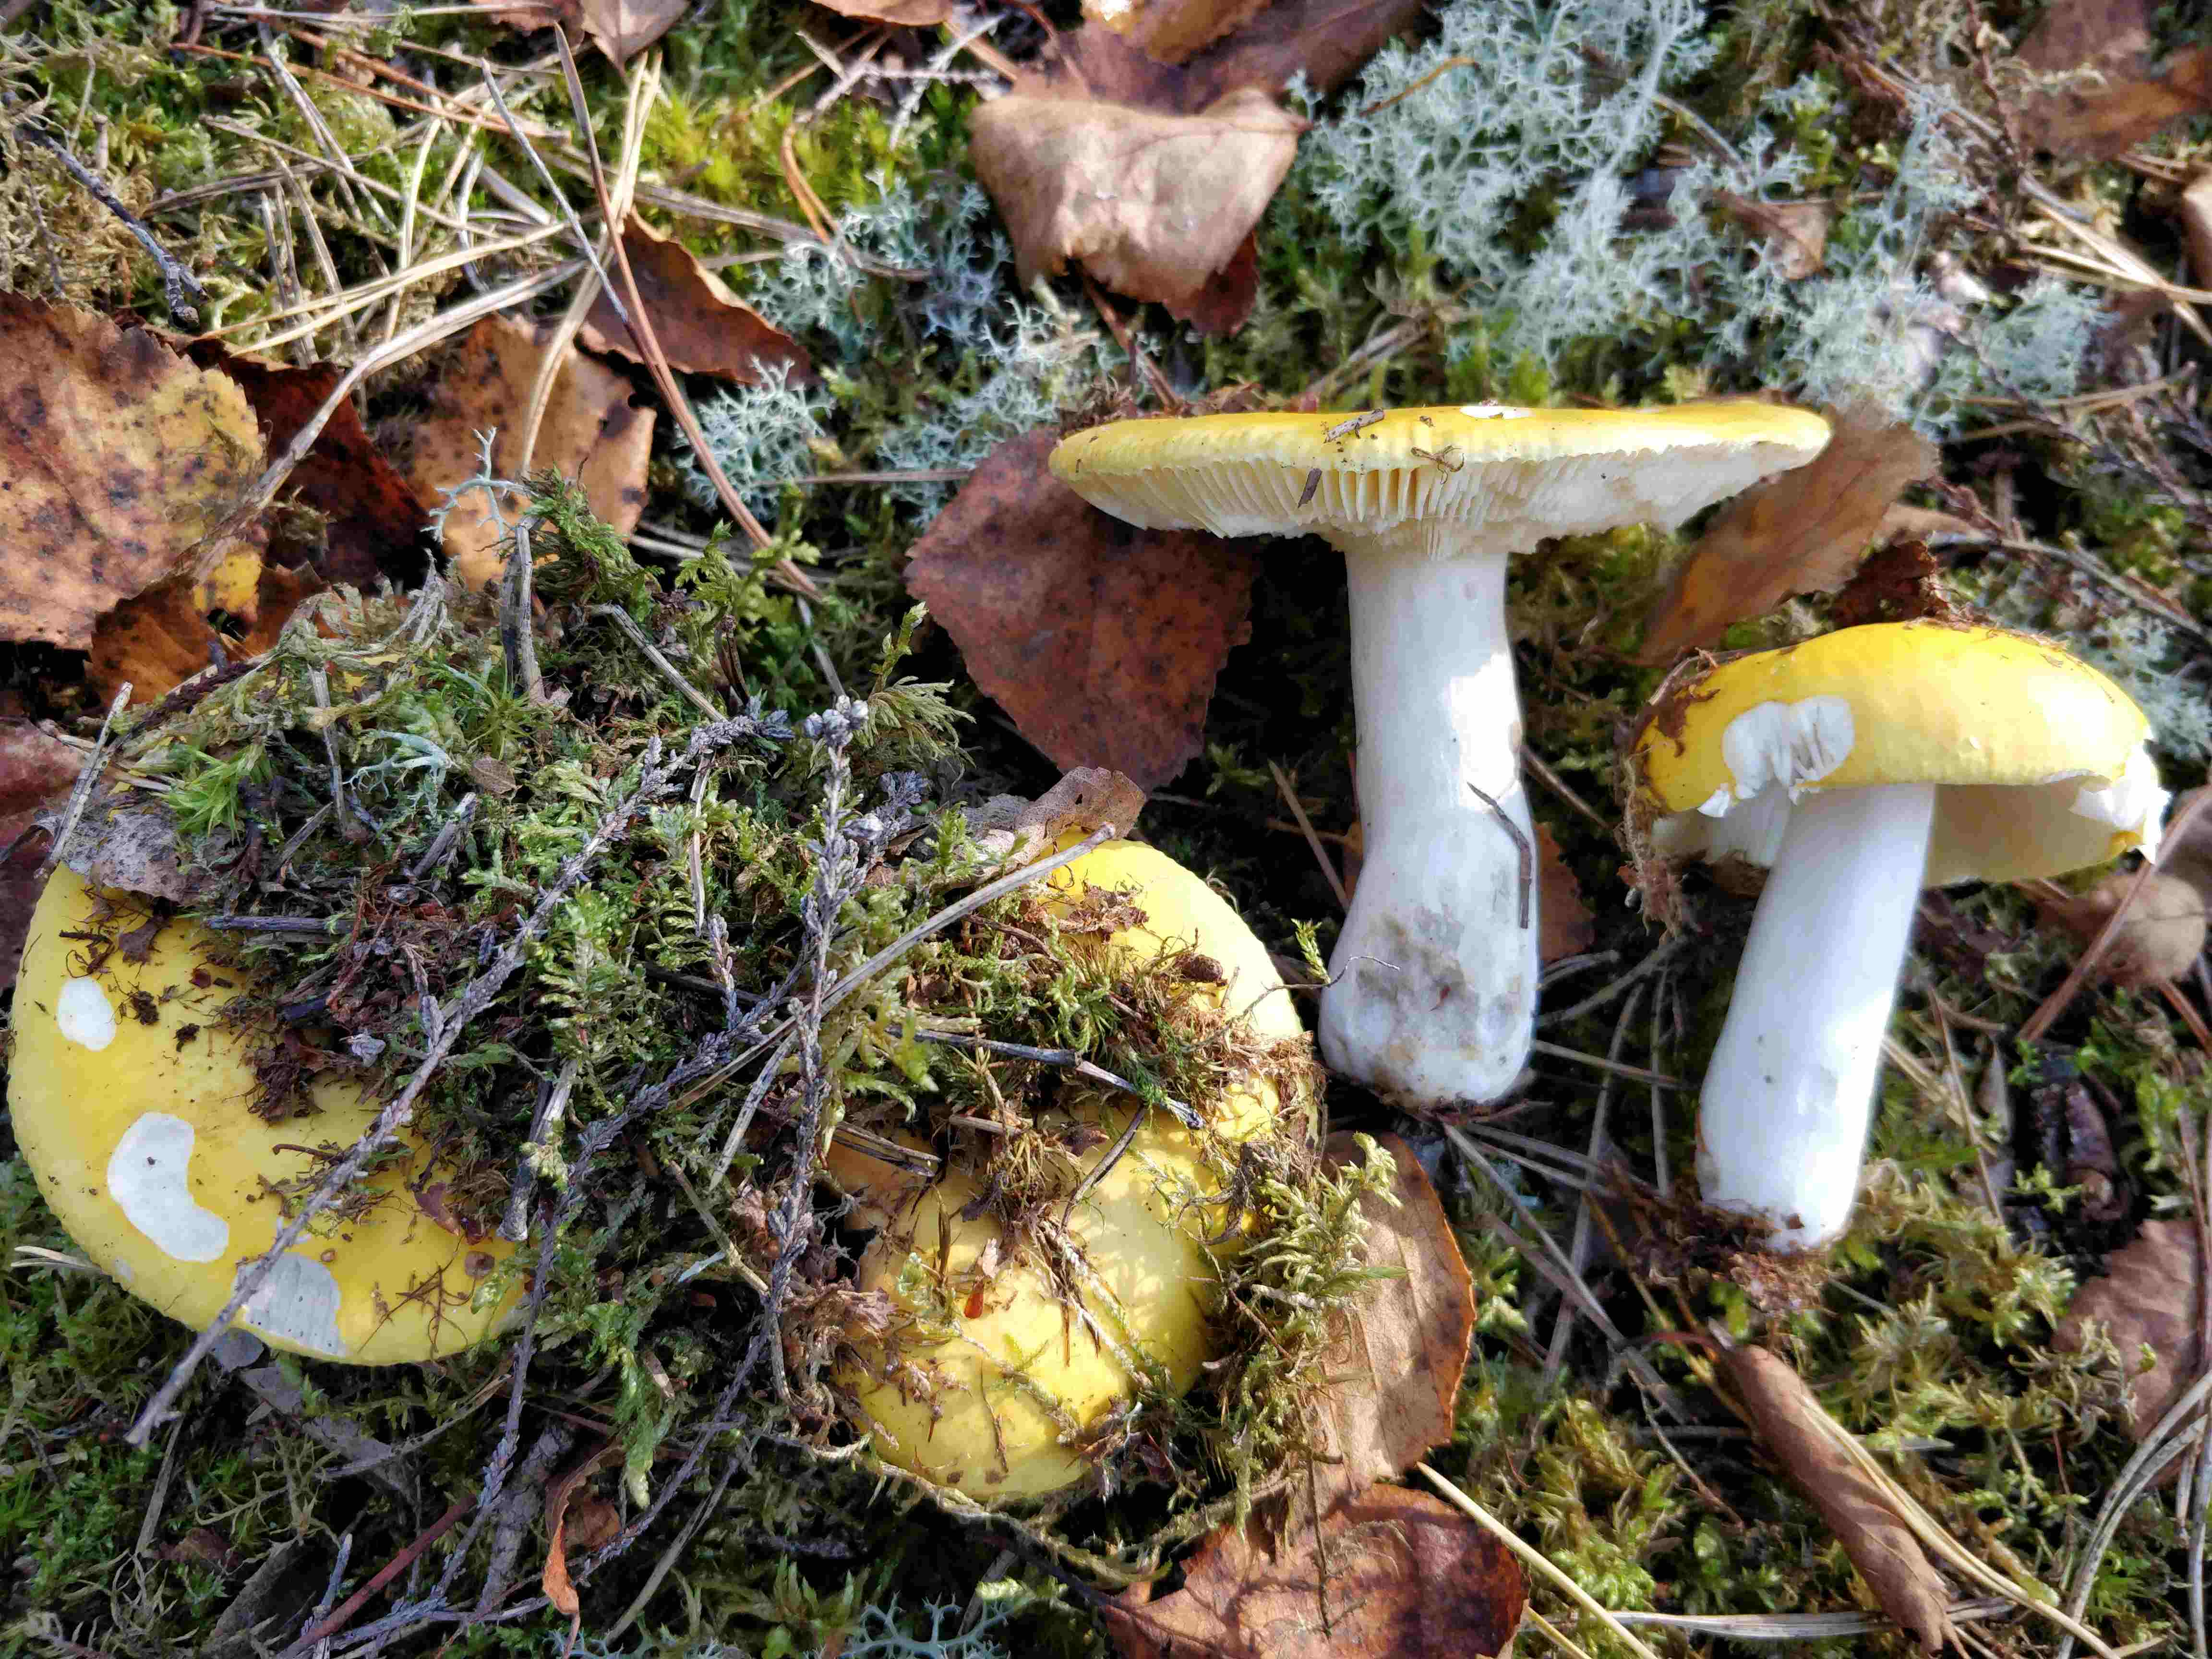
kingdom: Fungi
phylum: Basidiomycota
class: Agaricomycetes
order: Russulales
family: Russulaceae
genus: Russula
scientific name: Russula claroflava
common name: birke-skørhat
